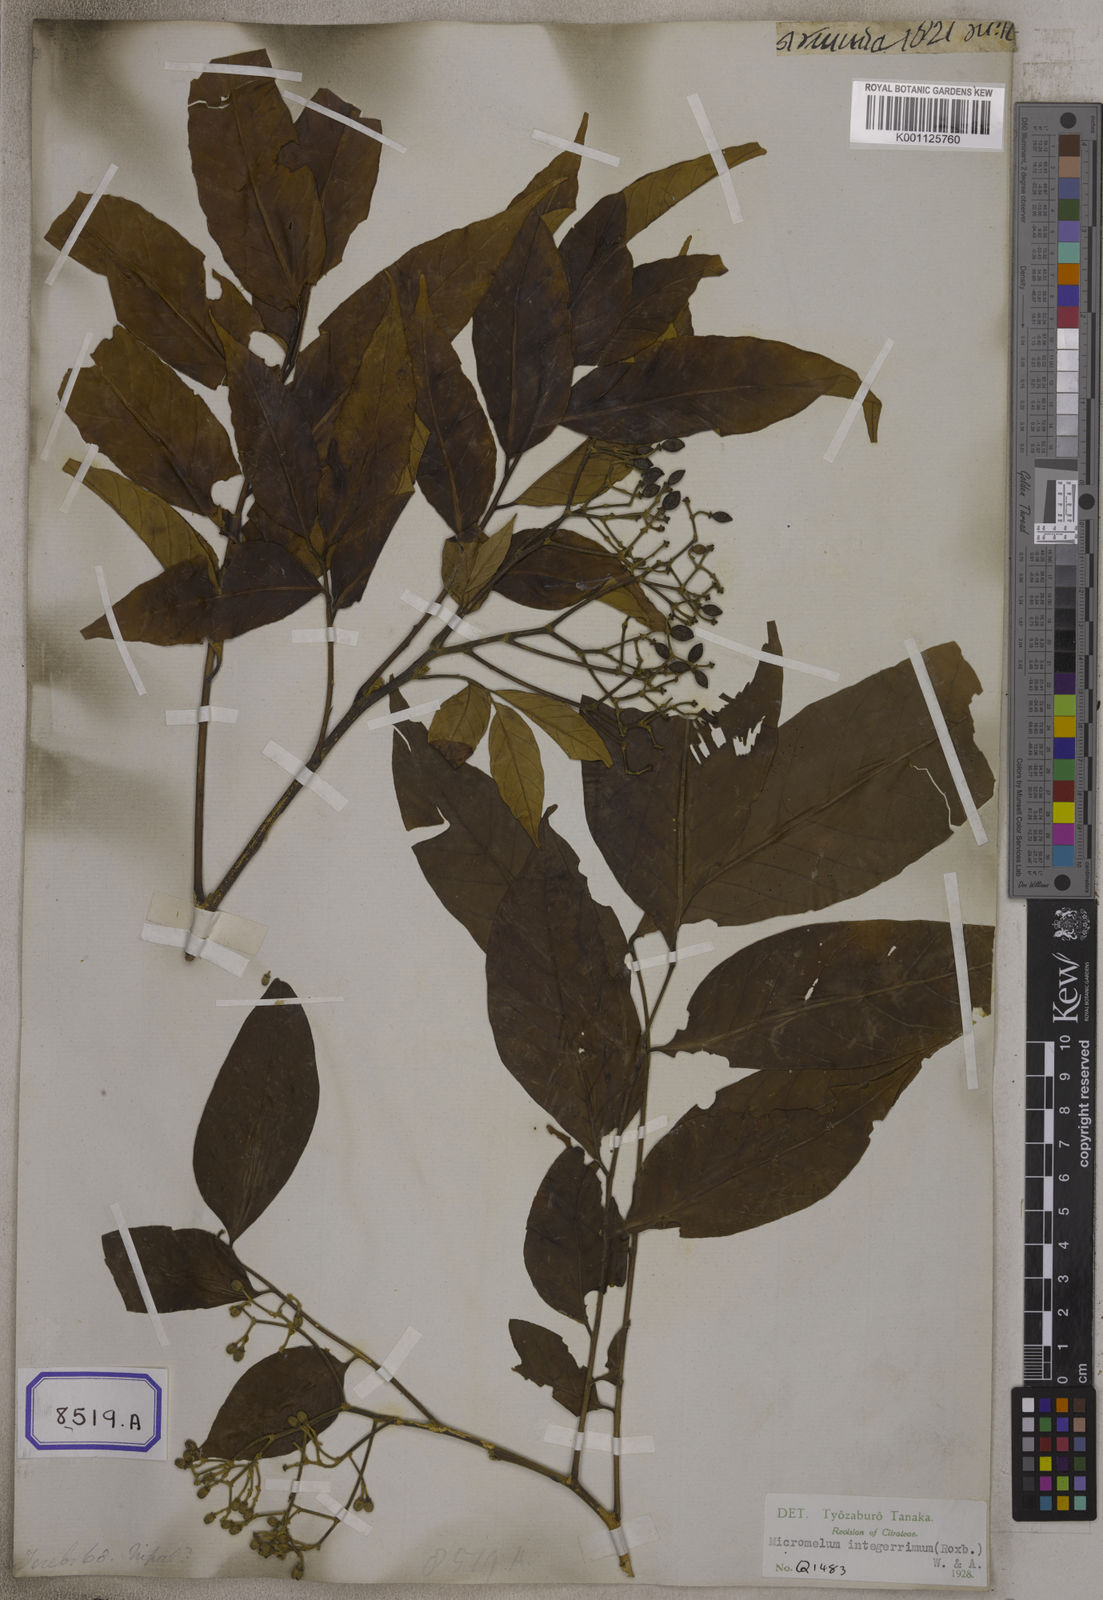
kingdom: Plantae
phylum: Tracheophyta
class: Magnoliopsida
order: Sapindales
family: Rutaceae
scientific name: Rutaceae
